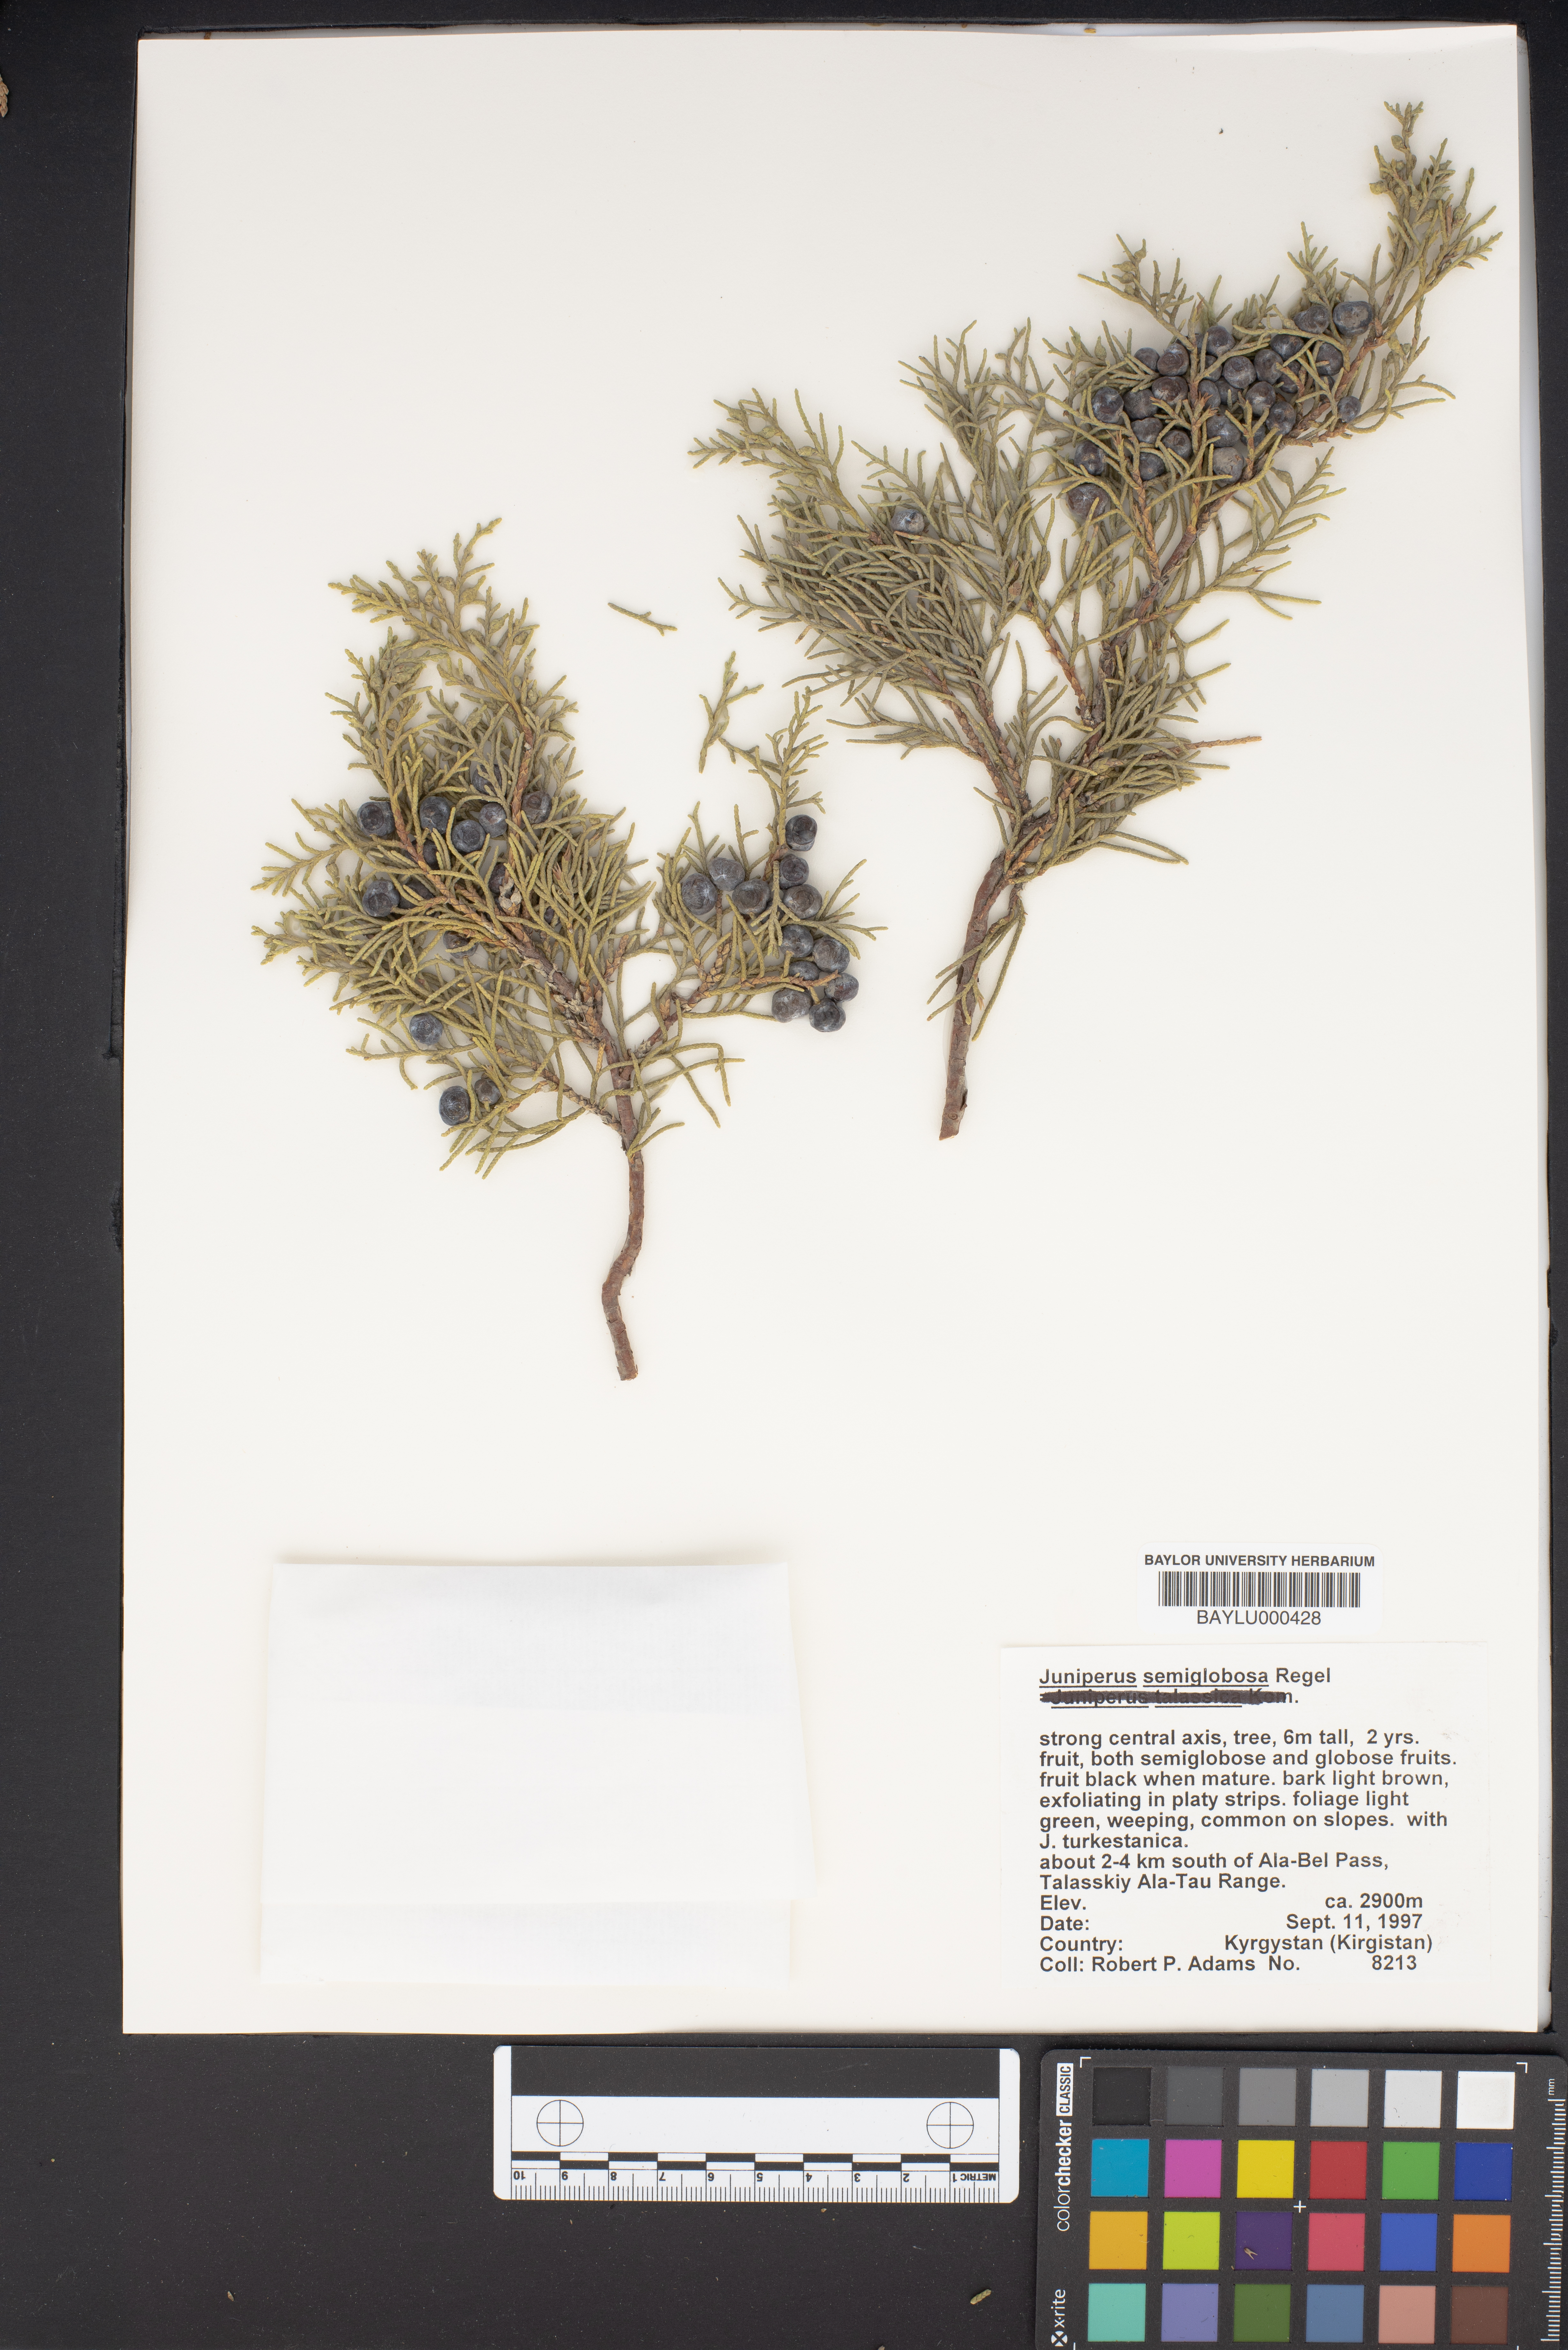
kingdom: Plantae
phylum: Tracheophyta
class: Pinopsida
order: Pinales
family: Cupressaceae
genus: Juniperus
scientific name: Juniperus semiglobosa
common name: Pencil cedar
